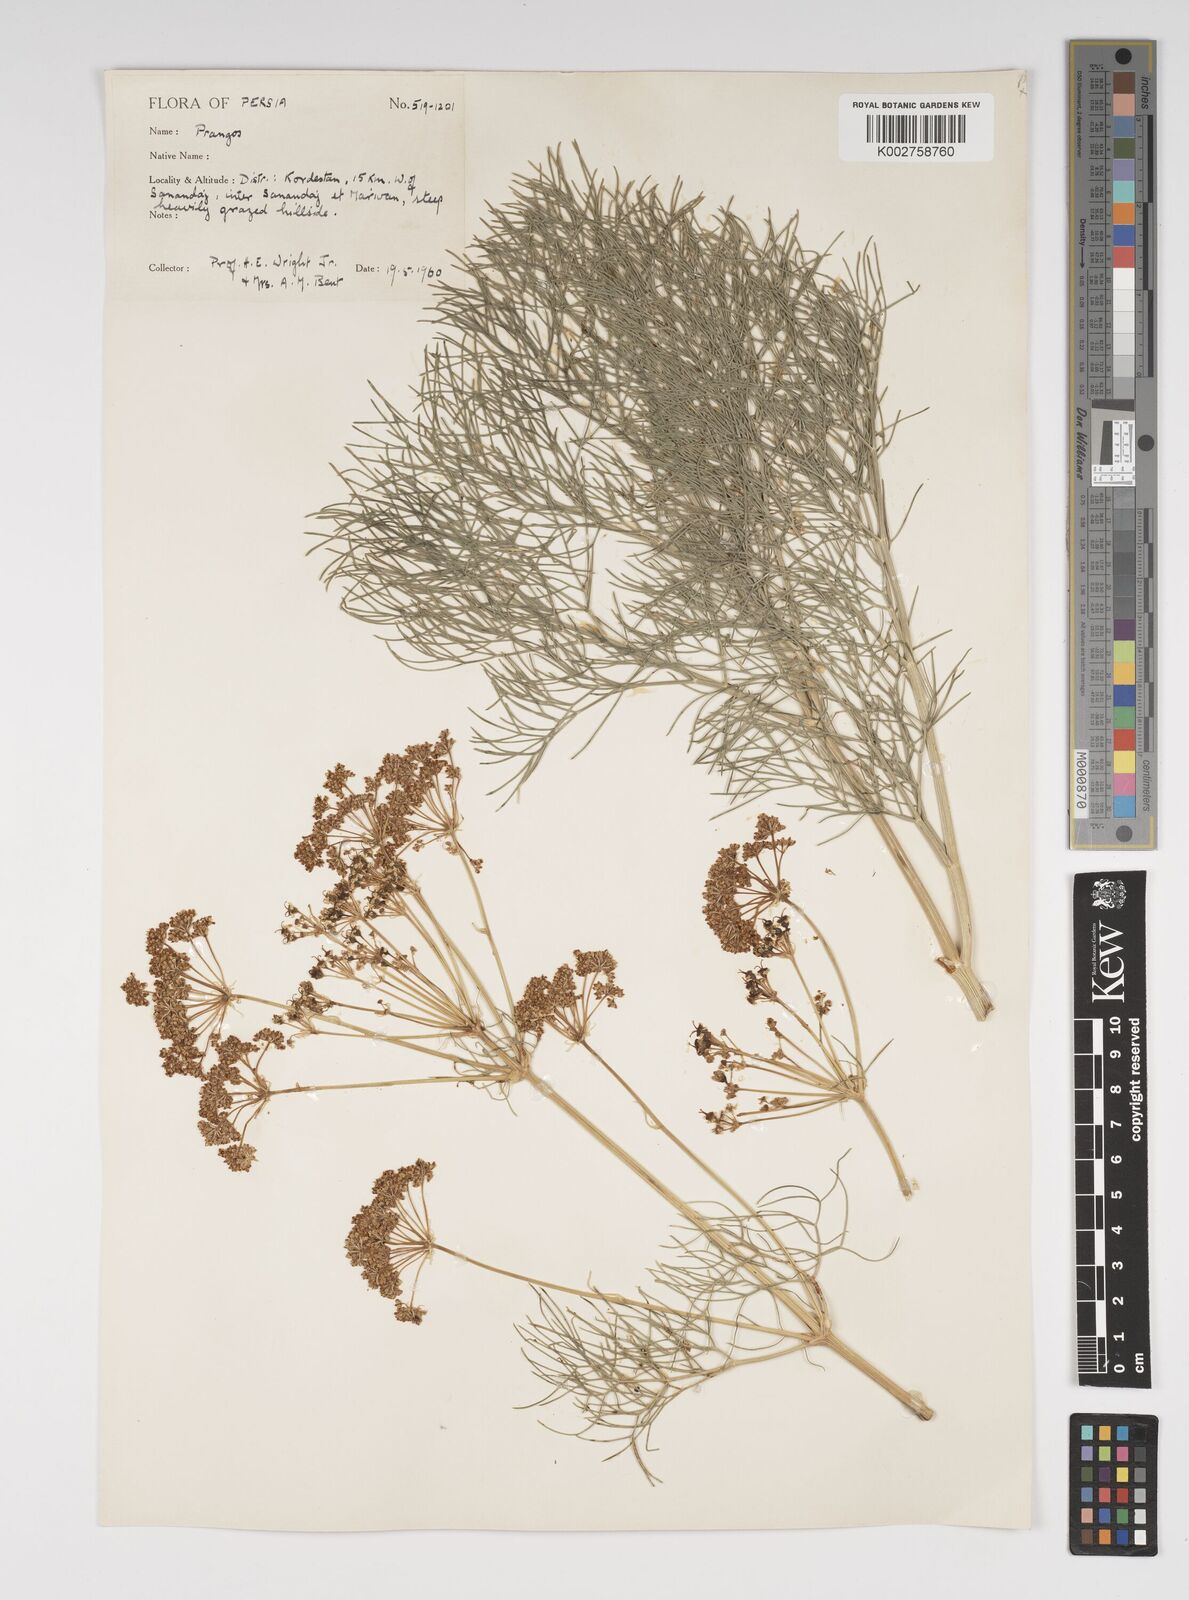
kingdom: Plantae
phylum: Tracheophyta
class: Magnoliopsida
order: Apiales
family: Apiaceae
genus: Cachrys
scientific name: Cachrys
